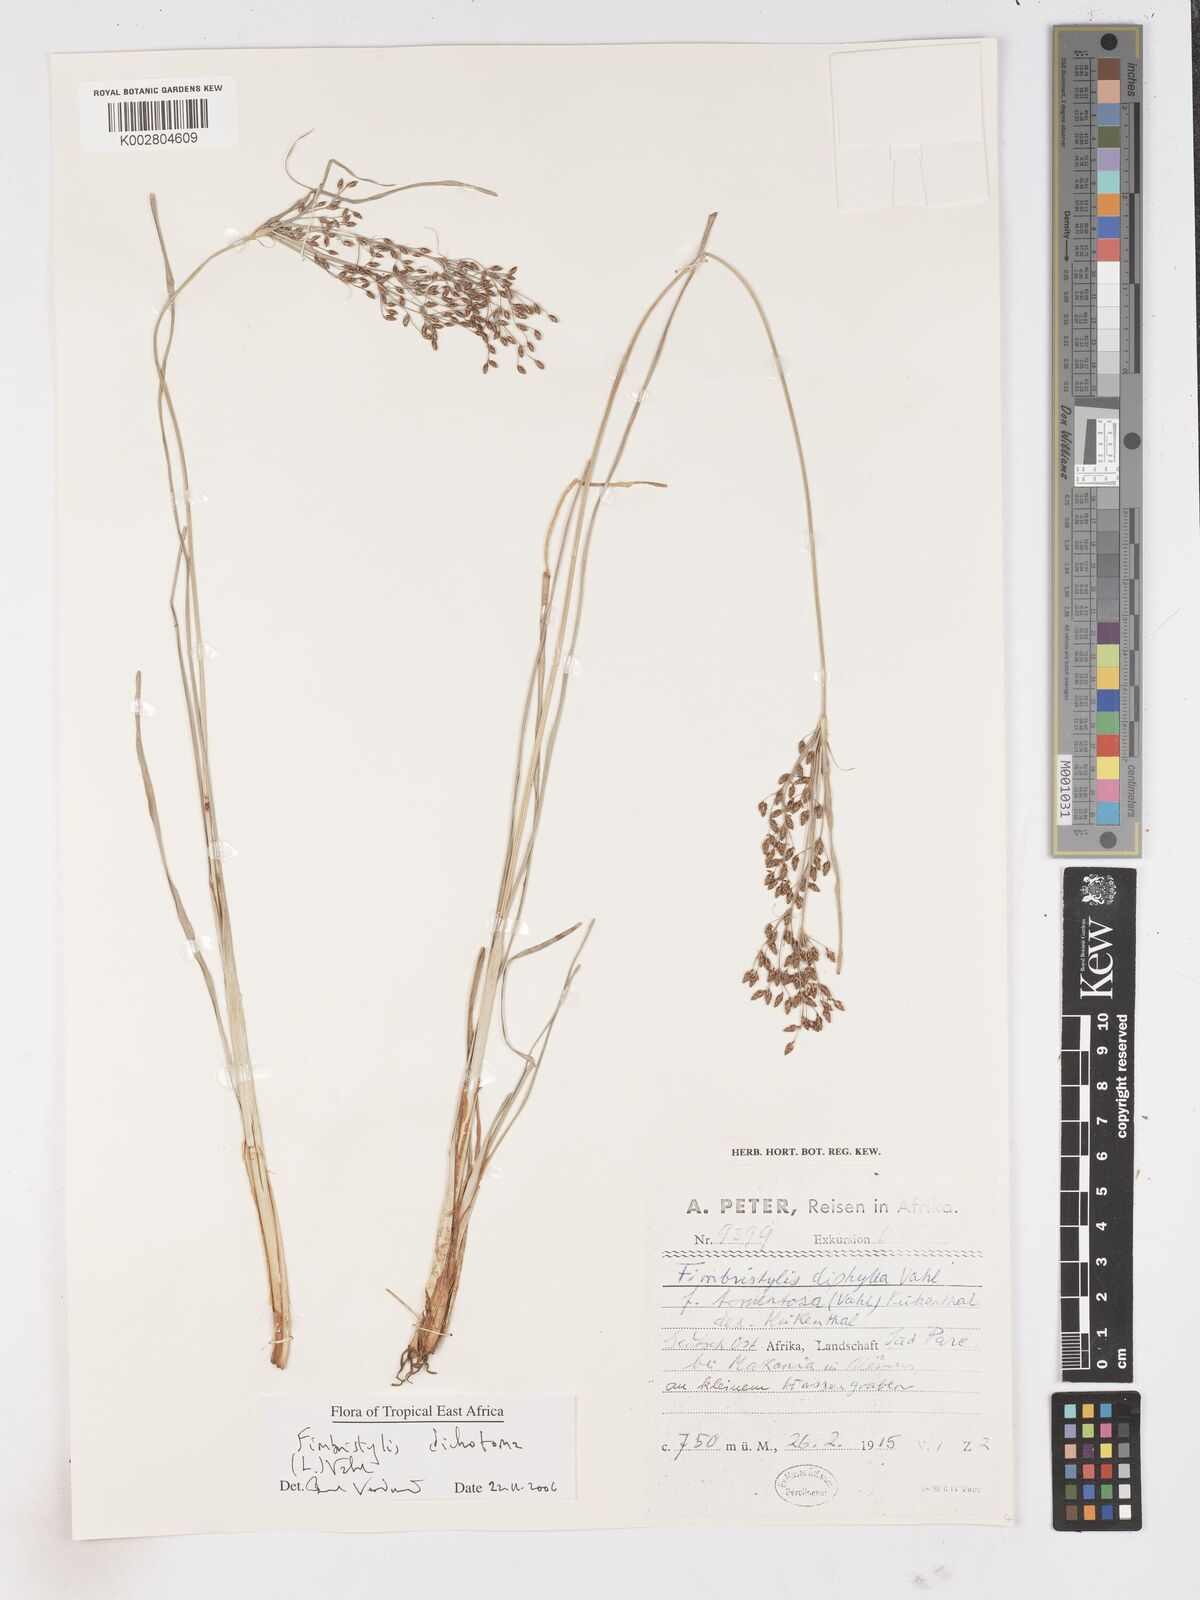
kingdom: Plantae
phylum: Tracheophyta
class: Liliopsida
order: Poales
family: Cyperaceae
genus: Fimbristylis
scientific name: Fimbristylis dichotoma
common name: Forked fimbry
